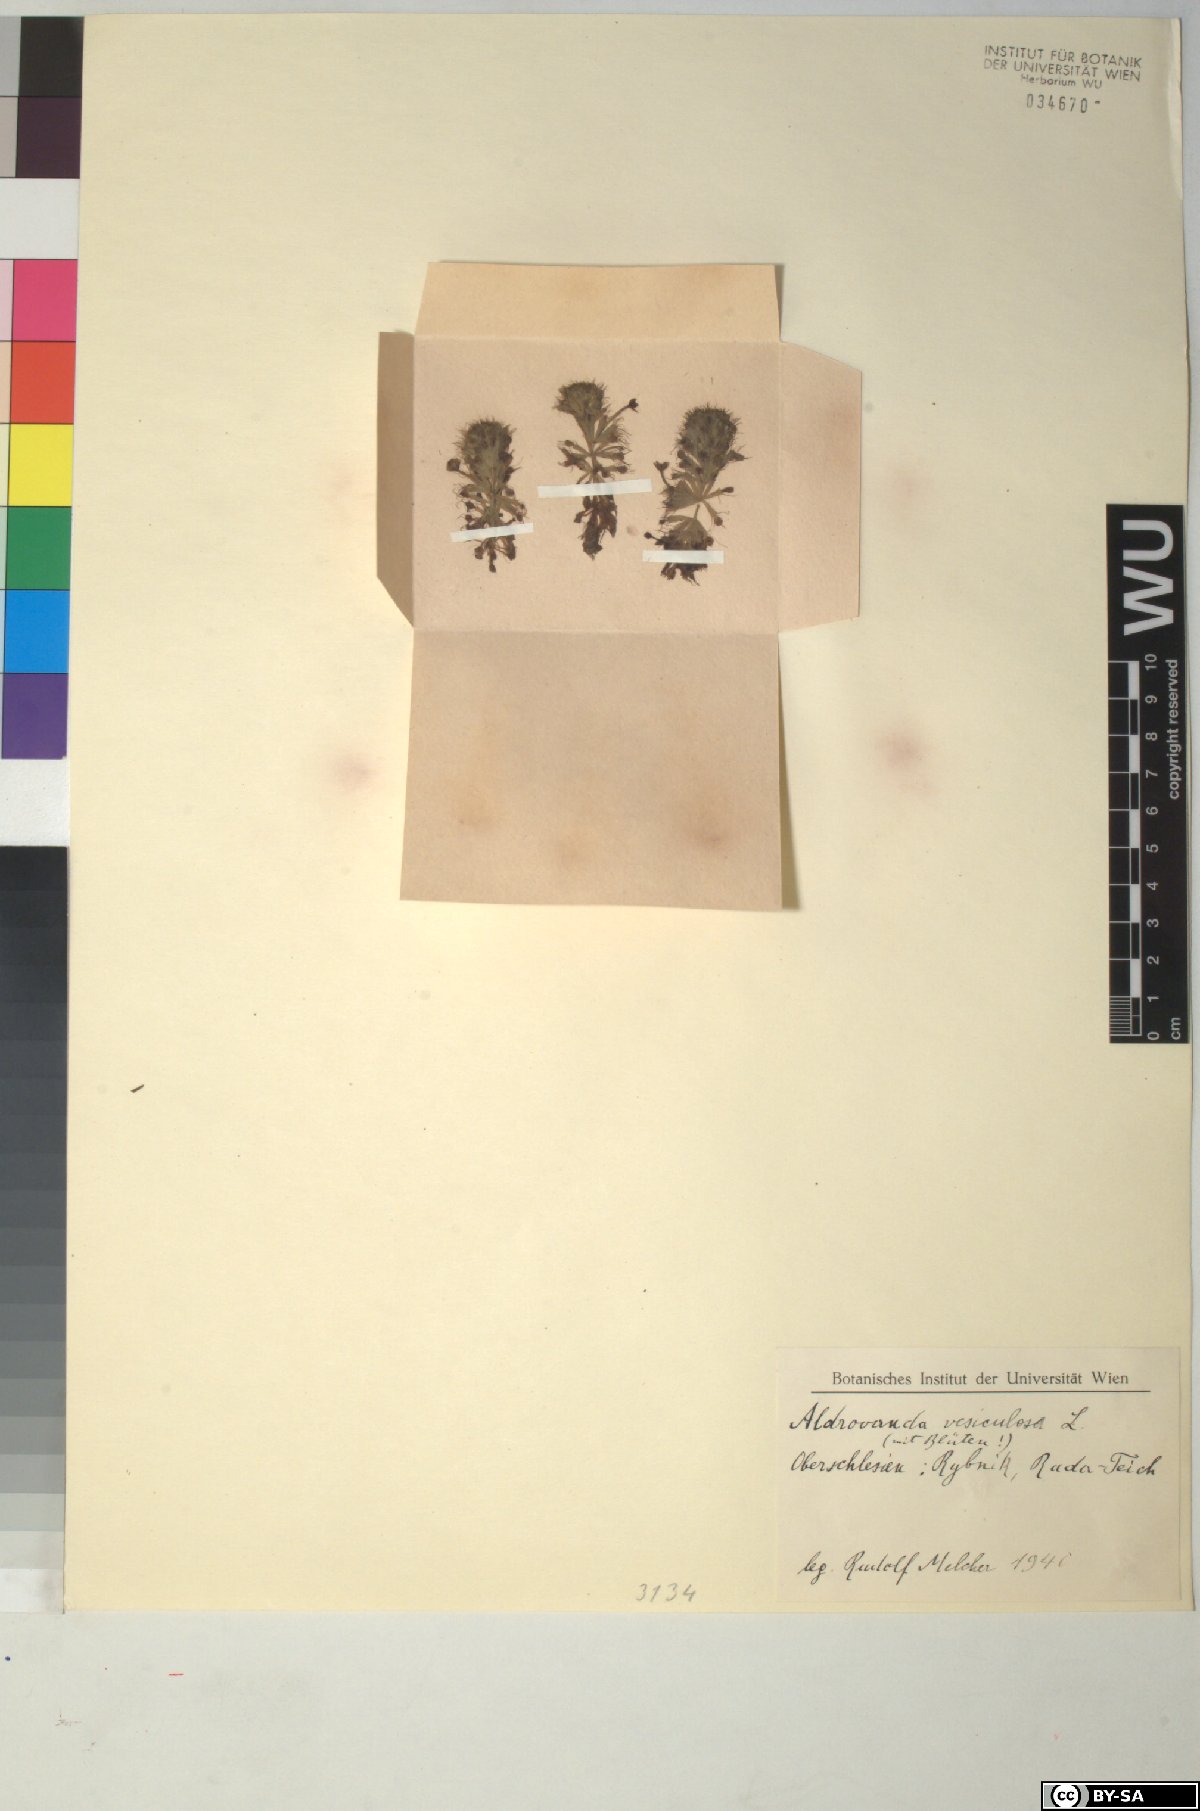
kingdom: Plantae
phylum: Tracheophyta
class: Magnoliopsida
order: Caryophyllales
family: Droseraceae
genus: Aldrovanda
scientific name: Aldrovanda vesiculosa
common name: Waterwheel plant
